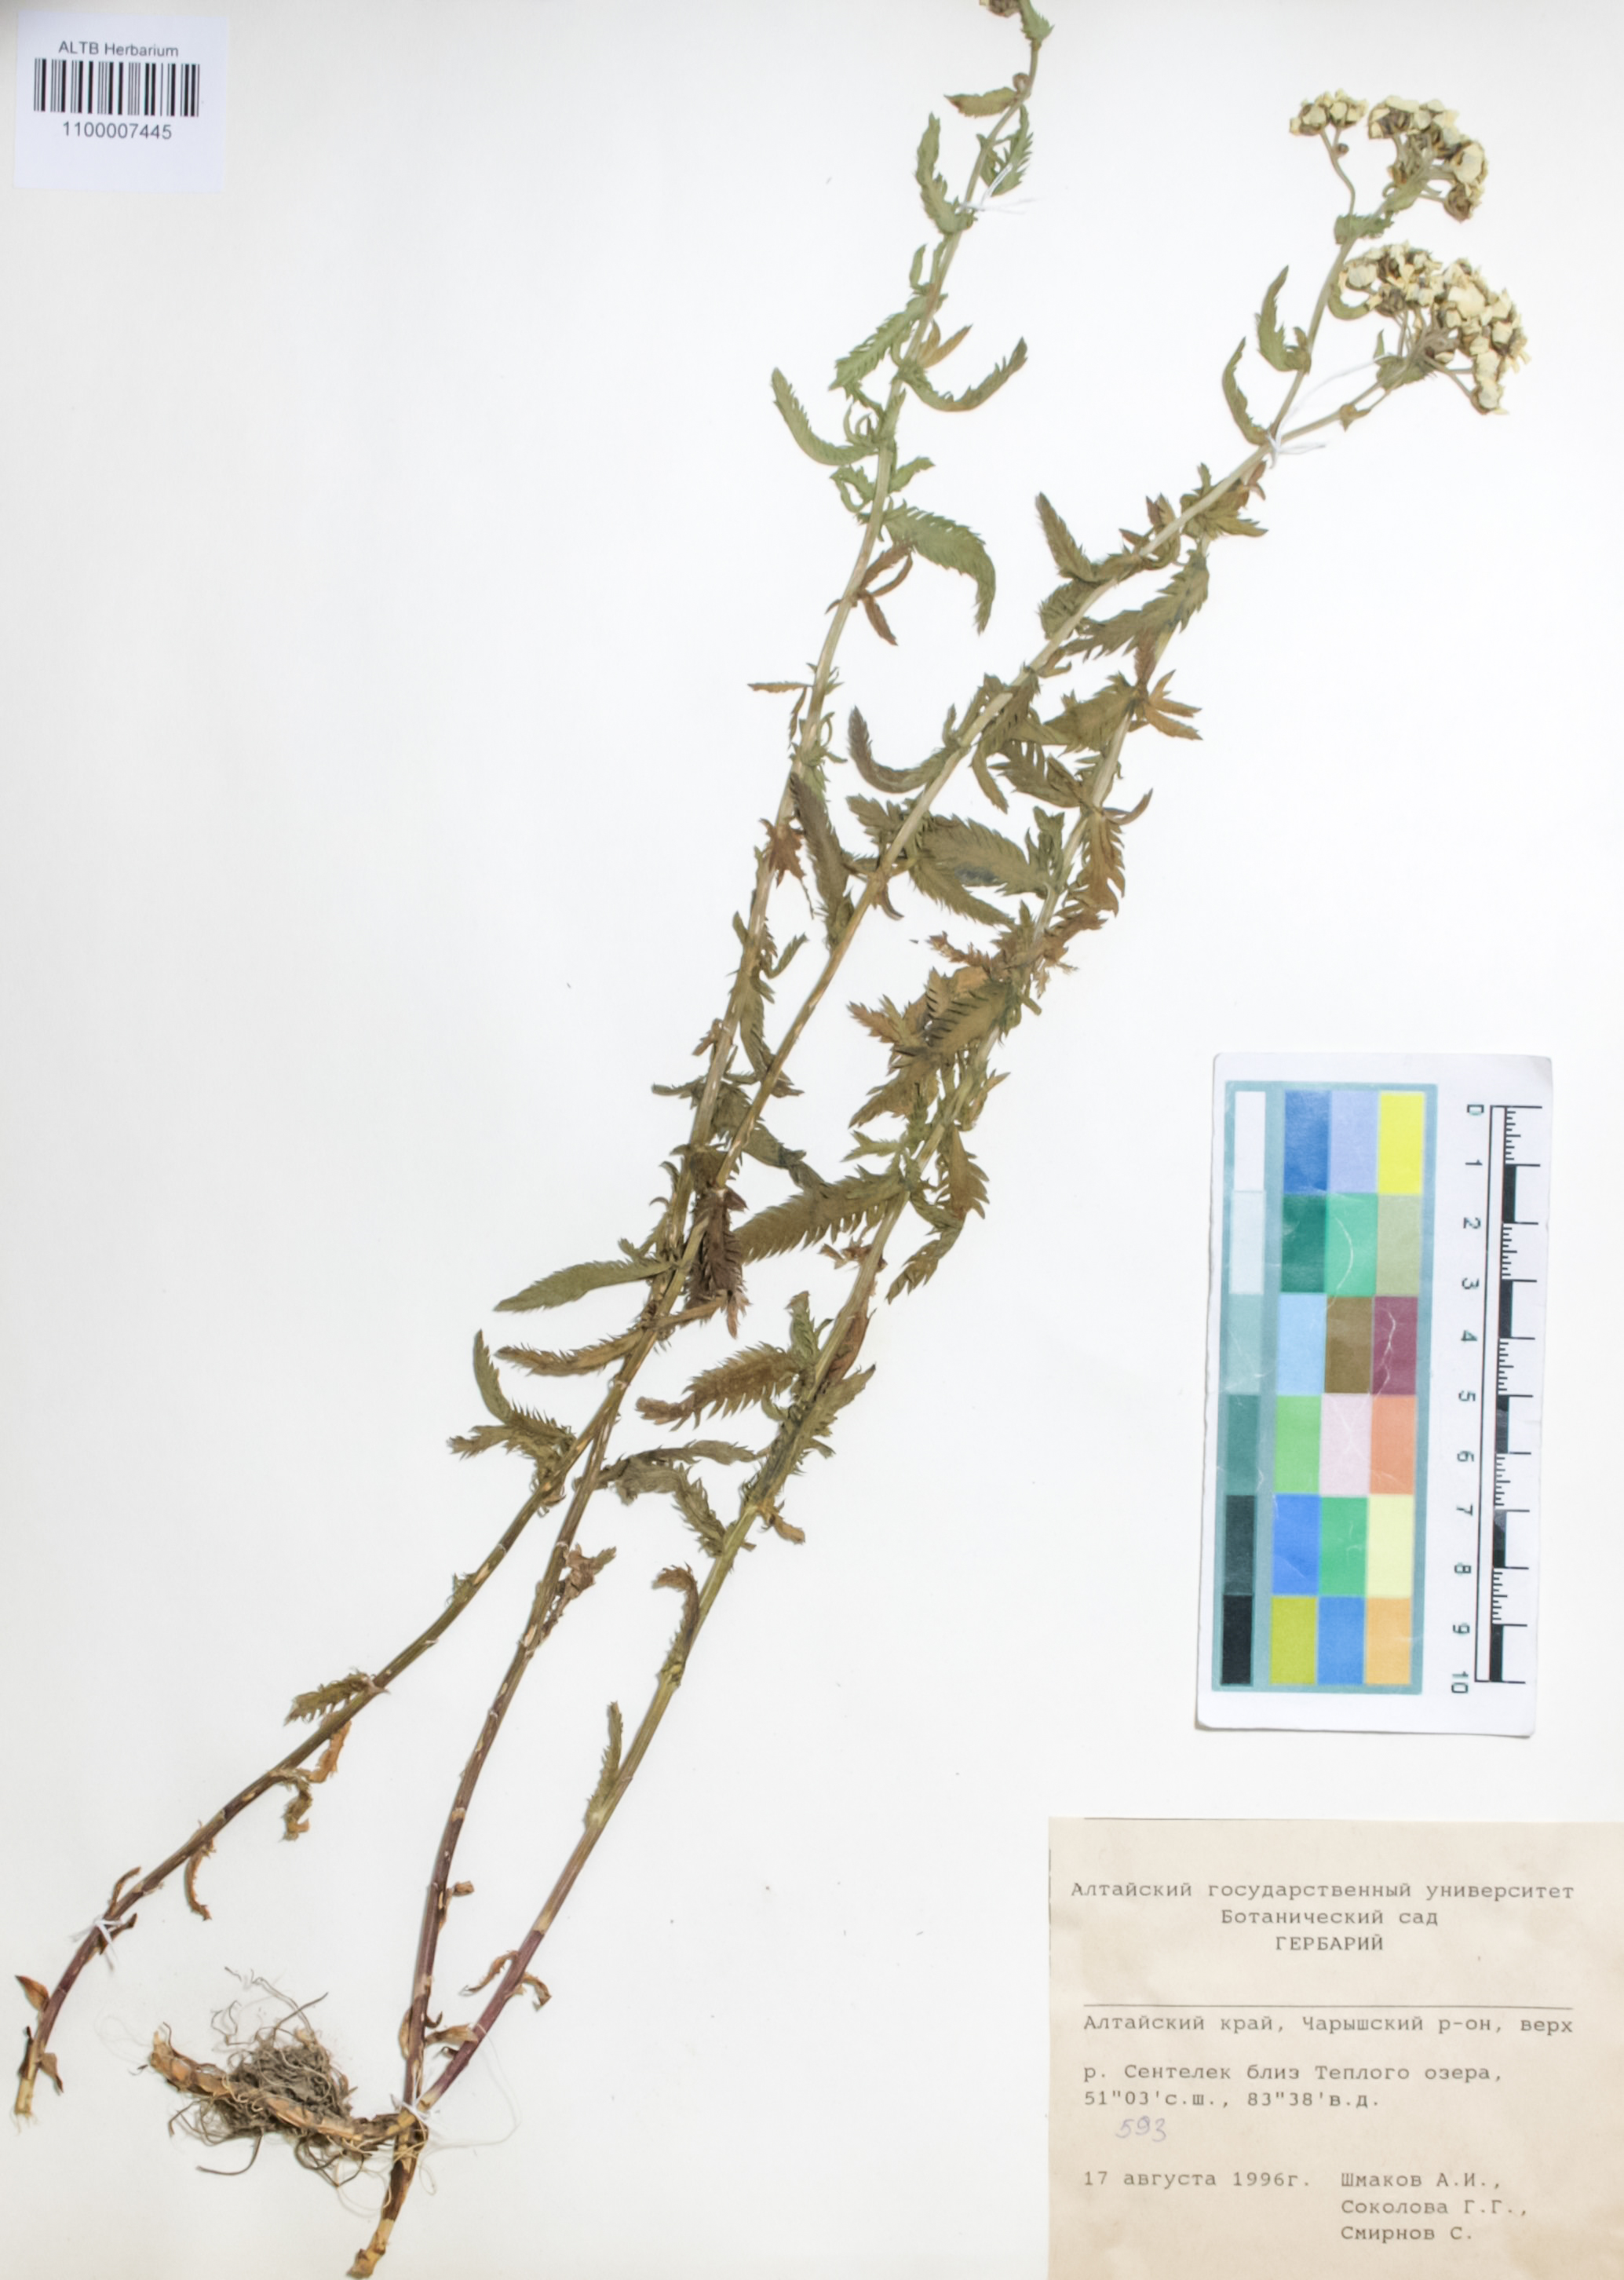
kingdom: Plantae
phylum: Tracheophyta
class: Magnoliopsida
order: Boraginales
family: Boraginaceae
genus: Rindera
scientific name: Rindera tetraspis
